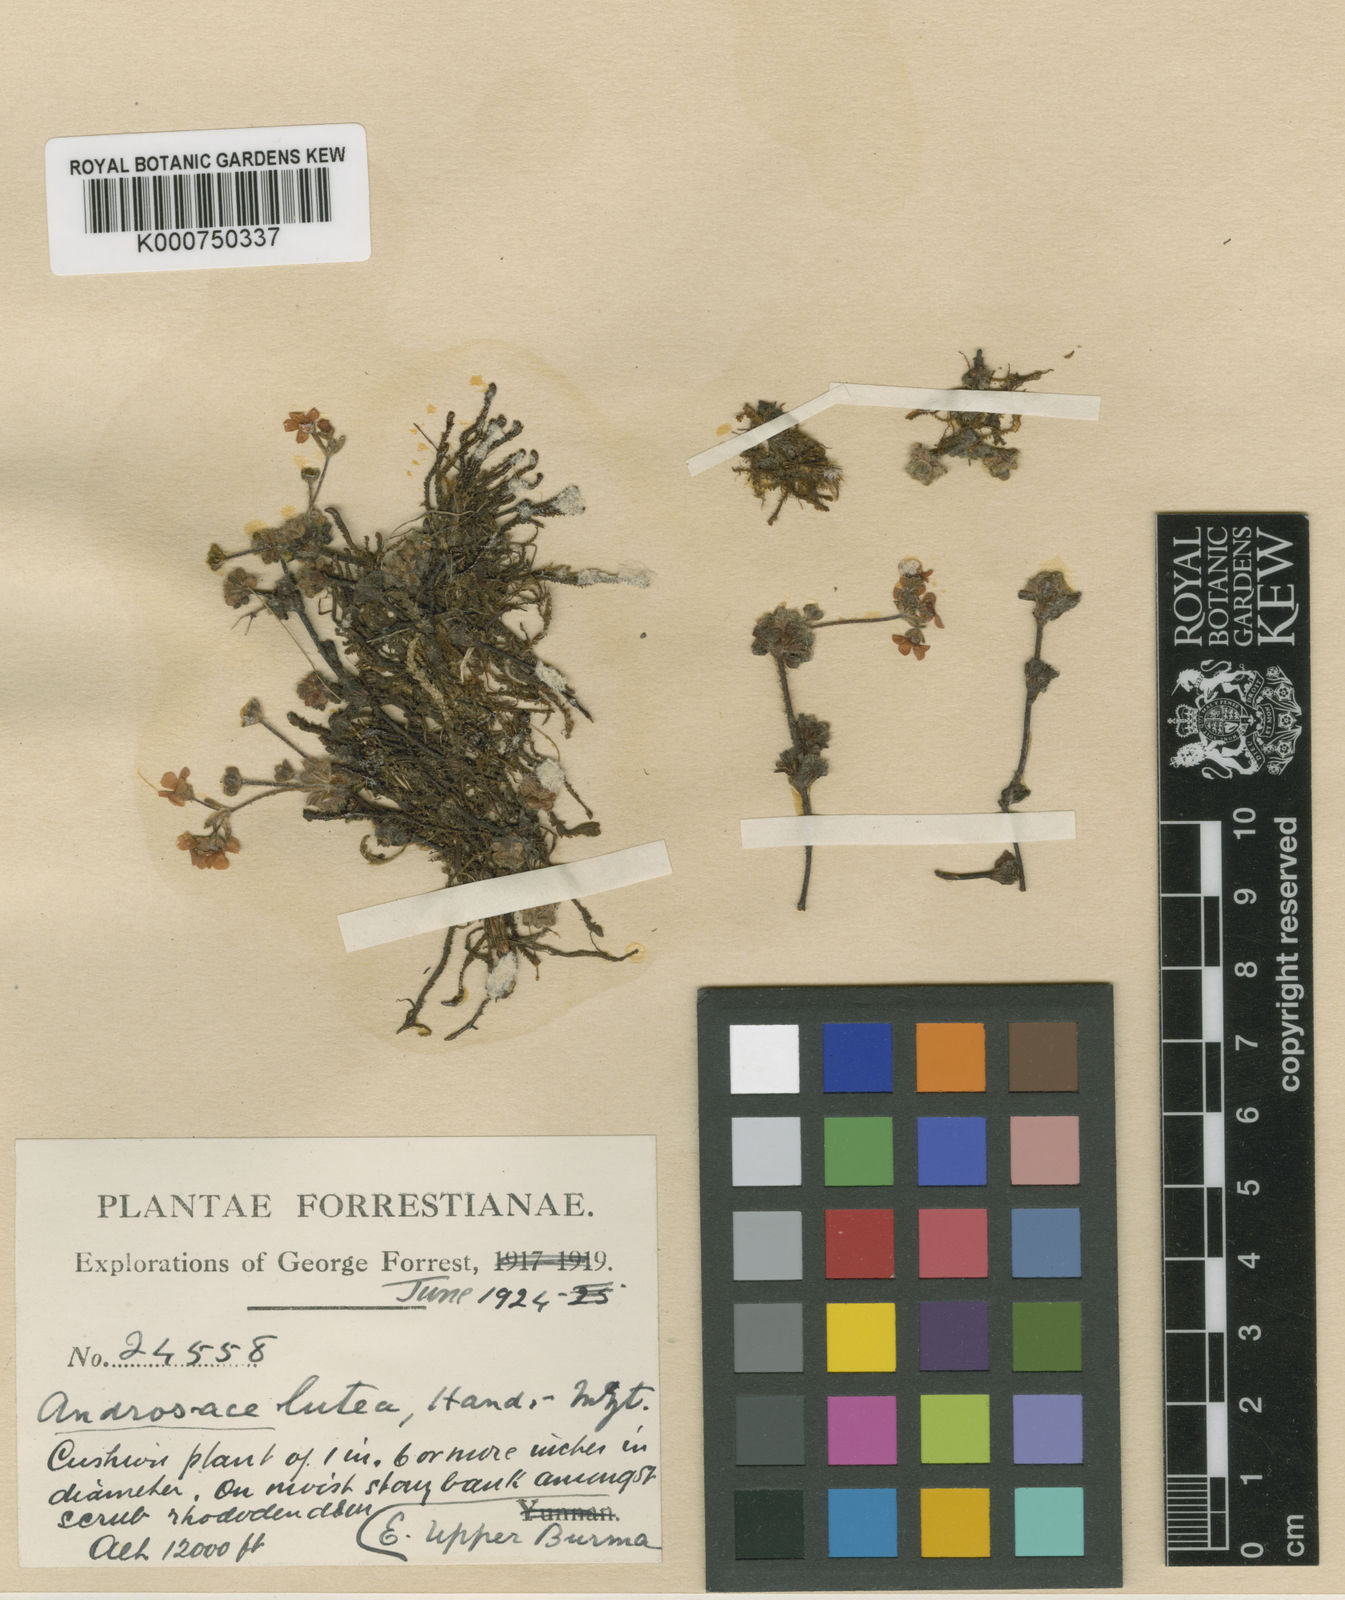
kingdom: Plantae
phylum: Tracheophyta
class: Magnoliopsida
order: Ericales
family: Primulaceae
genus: Androsace
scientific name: Androsace handel-mazzettii
